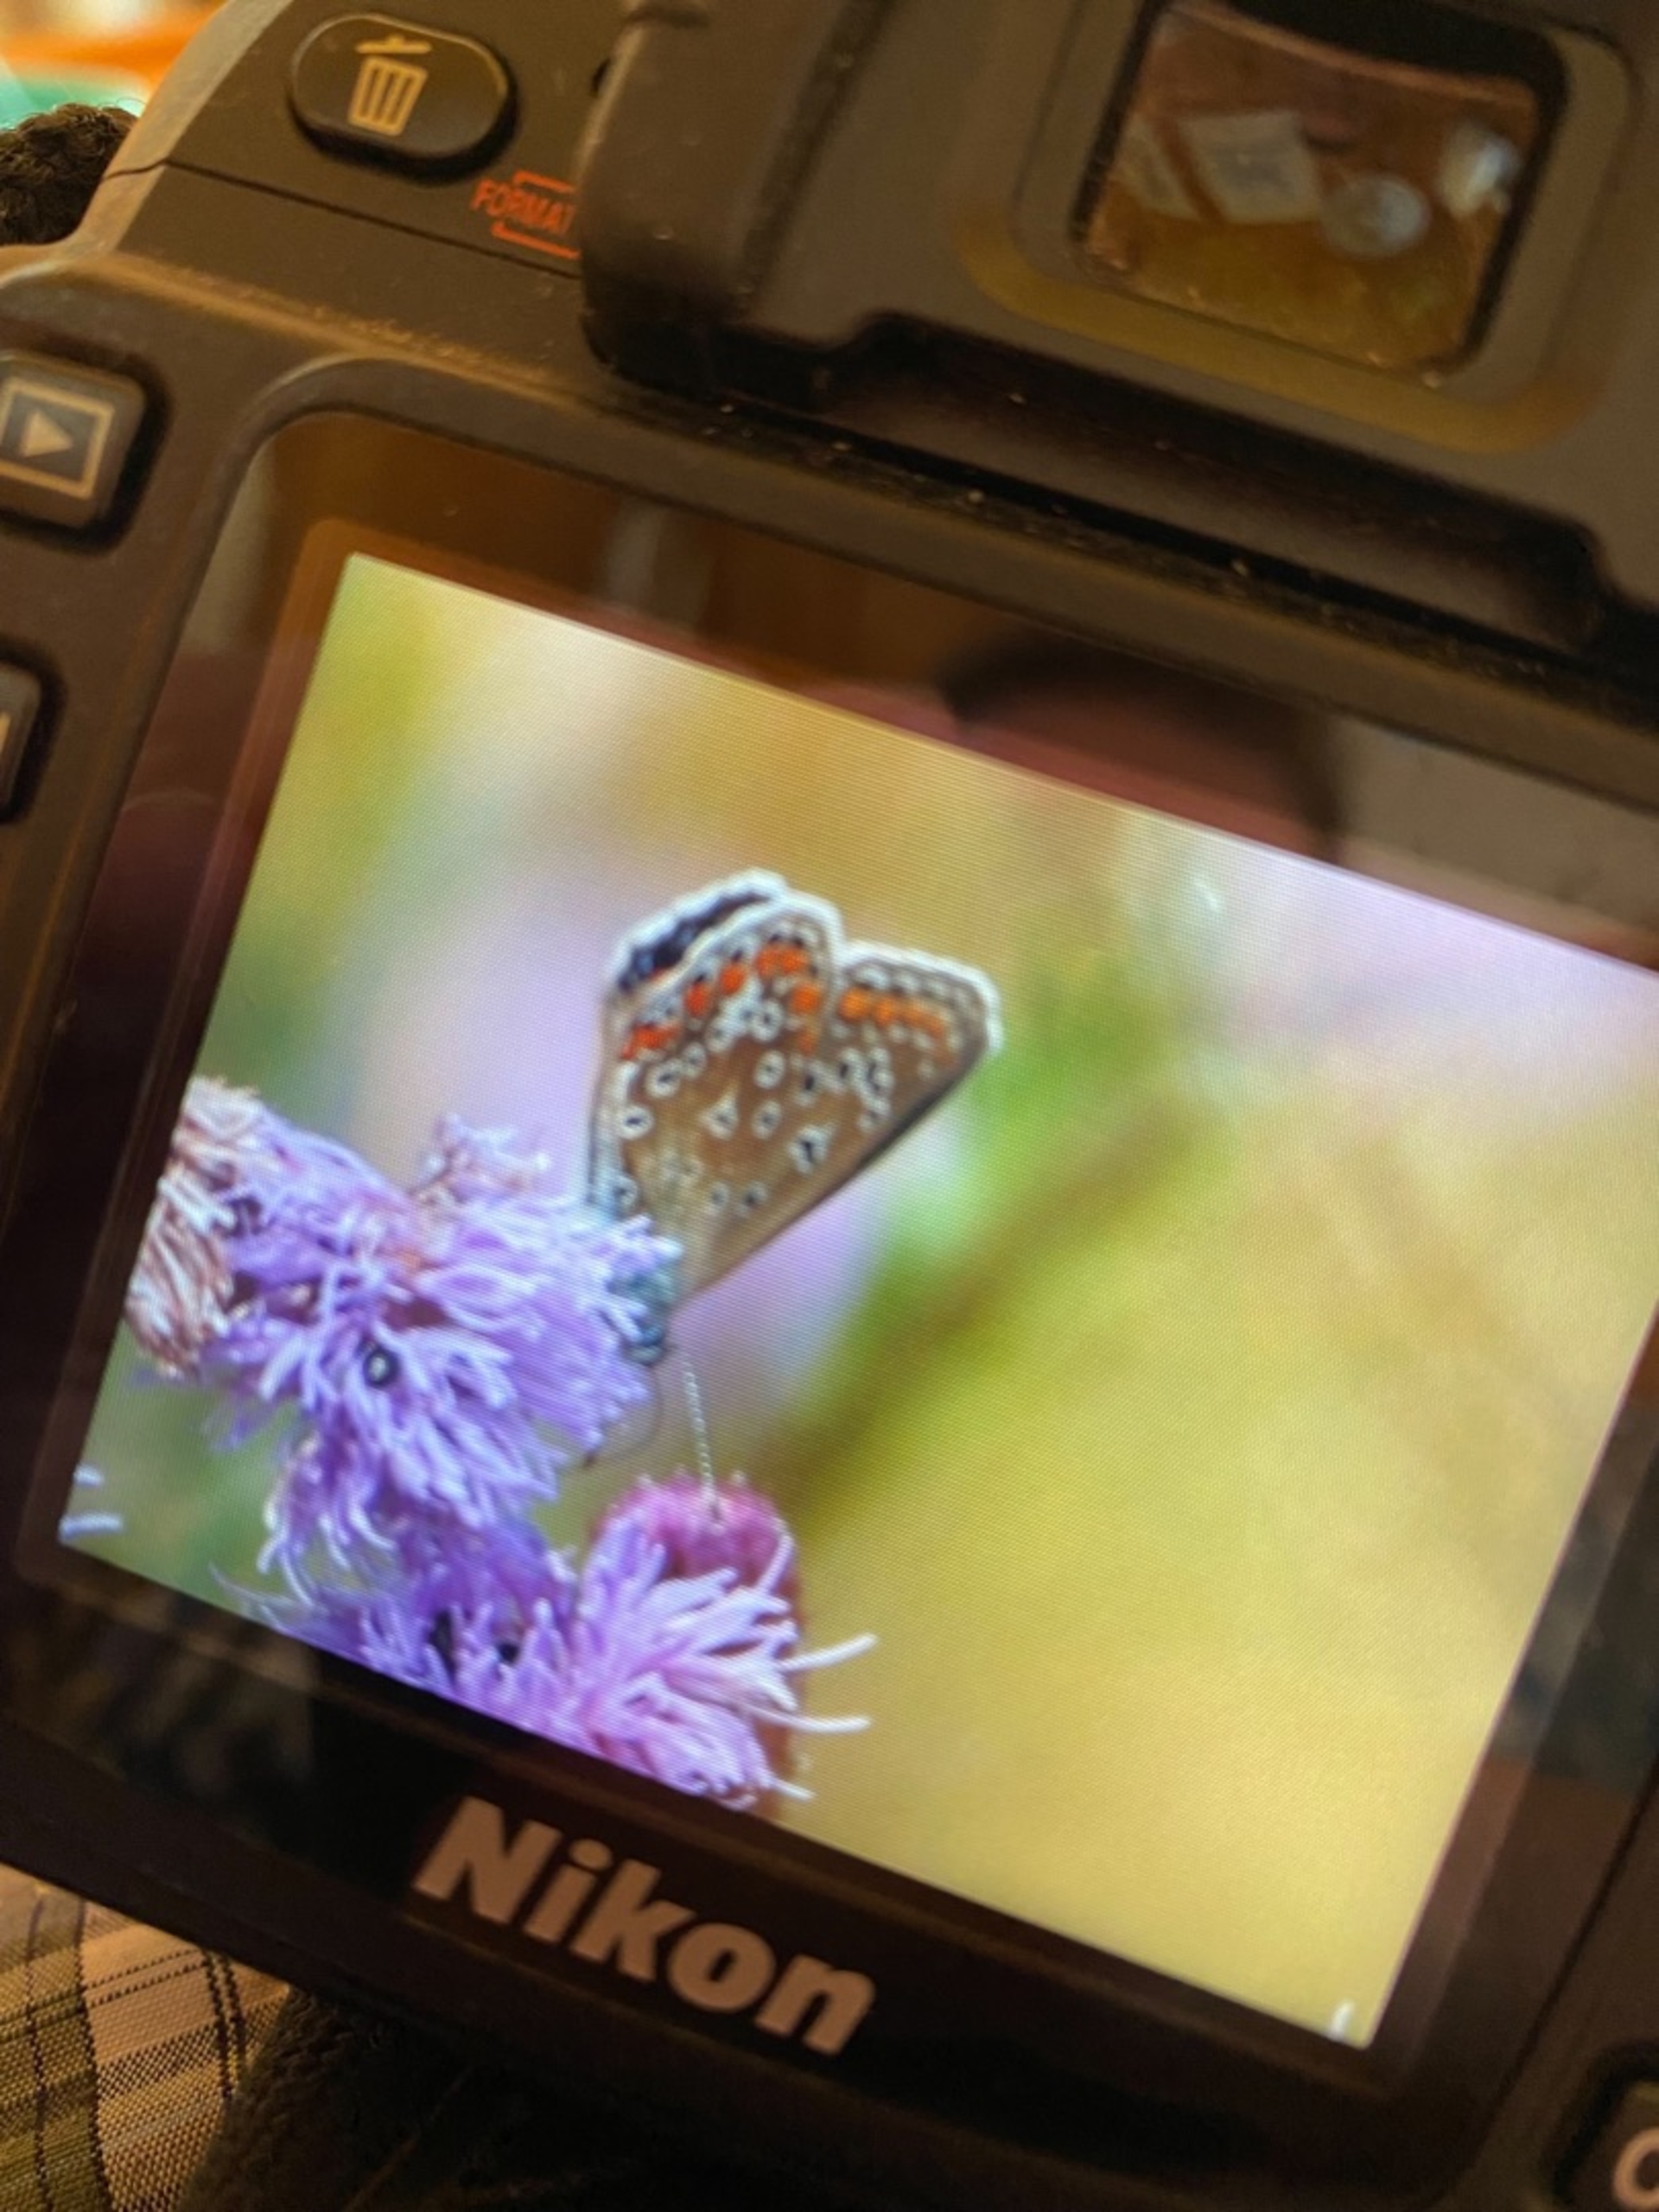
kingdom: Animalia
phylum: Arthropoda
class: Insecta
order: Lepidoptera
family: Lycaenidae
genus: Polyommatus
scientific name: Polyommatus icarus
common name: Almindelig blåfugl
